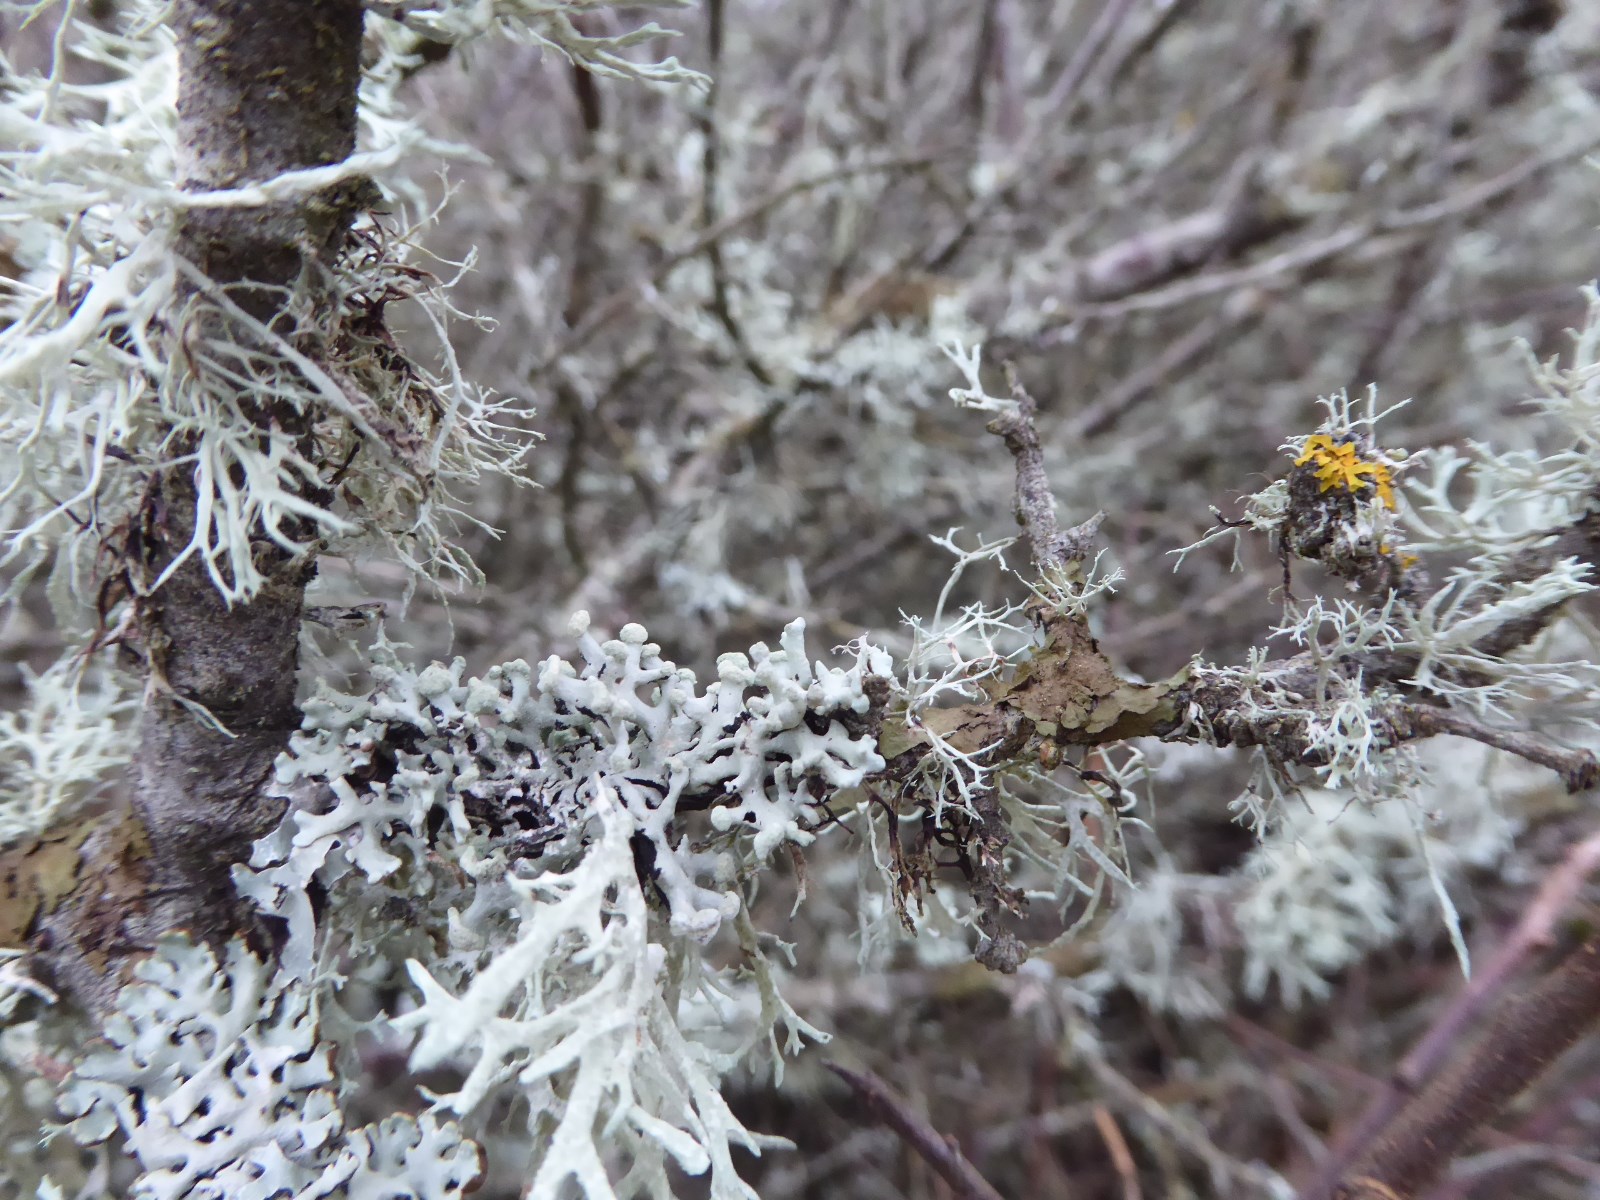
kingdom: Fungi
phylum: Ascomycota
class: Lecanoromycetes
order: Lecanorales
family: Parmeliaceae
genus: Hypogymnia
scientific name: Hypogymnia tubulosa
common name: finger-kvistlav
